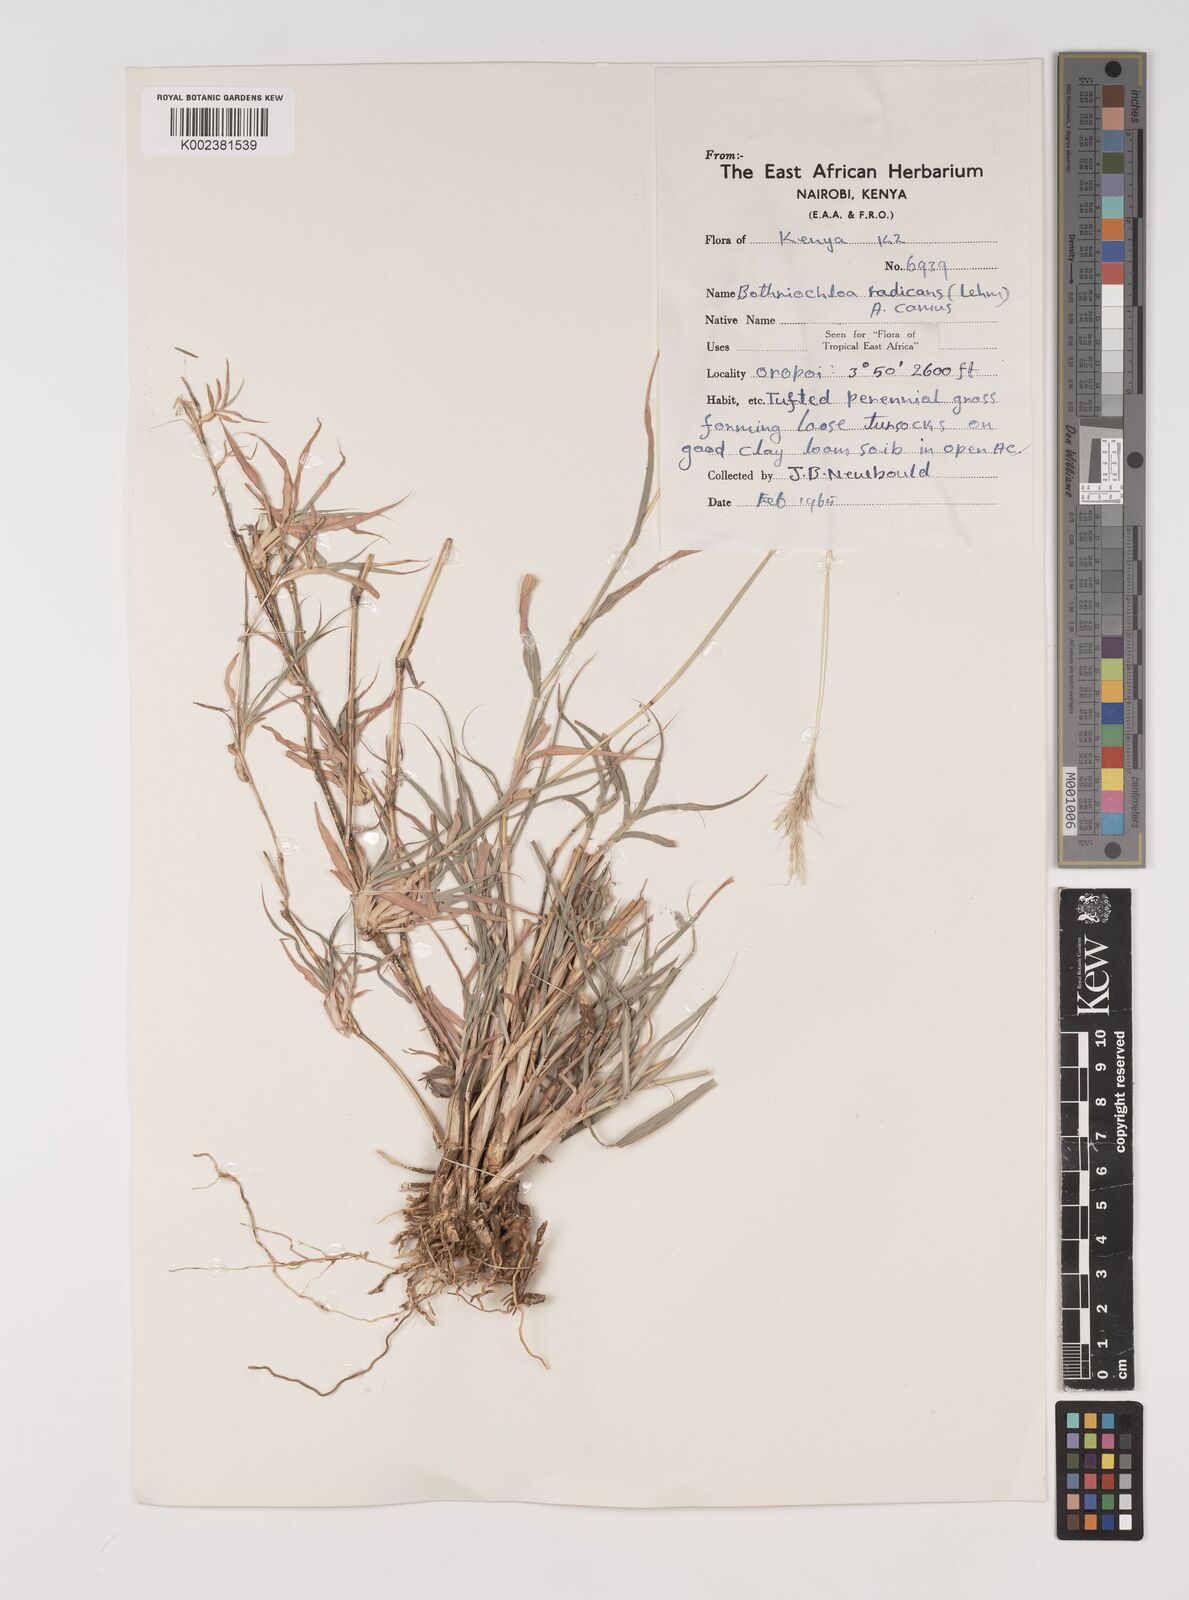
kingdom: Plantae
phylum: Tracheophyta
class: Liliopsida
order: Poales
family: Poaceae
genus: Bothriochloa
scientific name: Bothriochloa radicans
